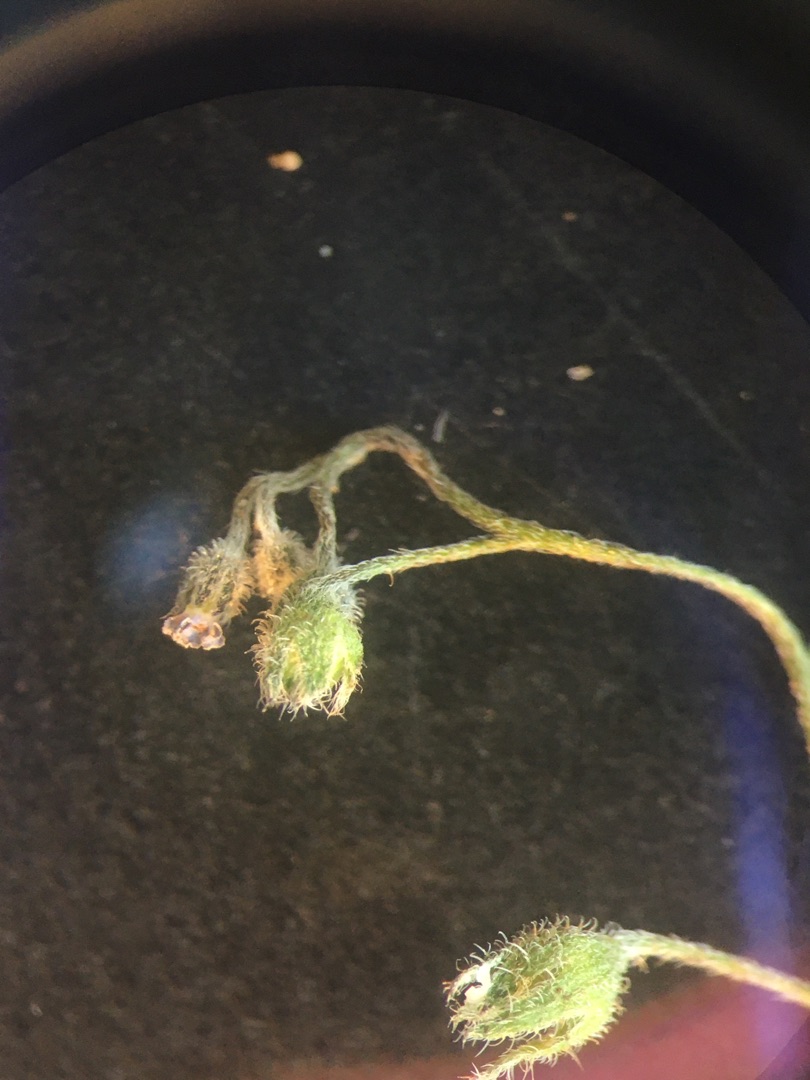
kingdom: Plantae
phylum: Tracheophyta
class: Magnoliopsida
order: Boraginales
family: Boraginaceae
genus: Myosotis
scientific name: Myosotis arvensis
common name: Mark-forglemmigej
